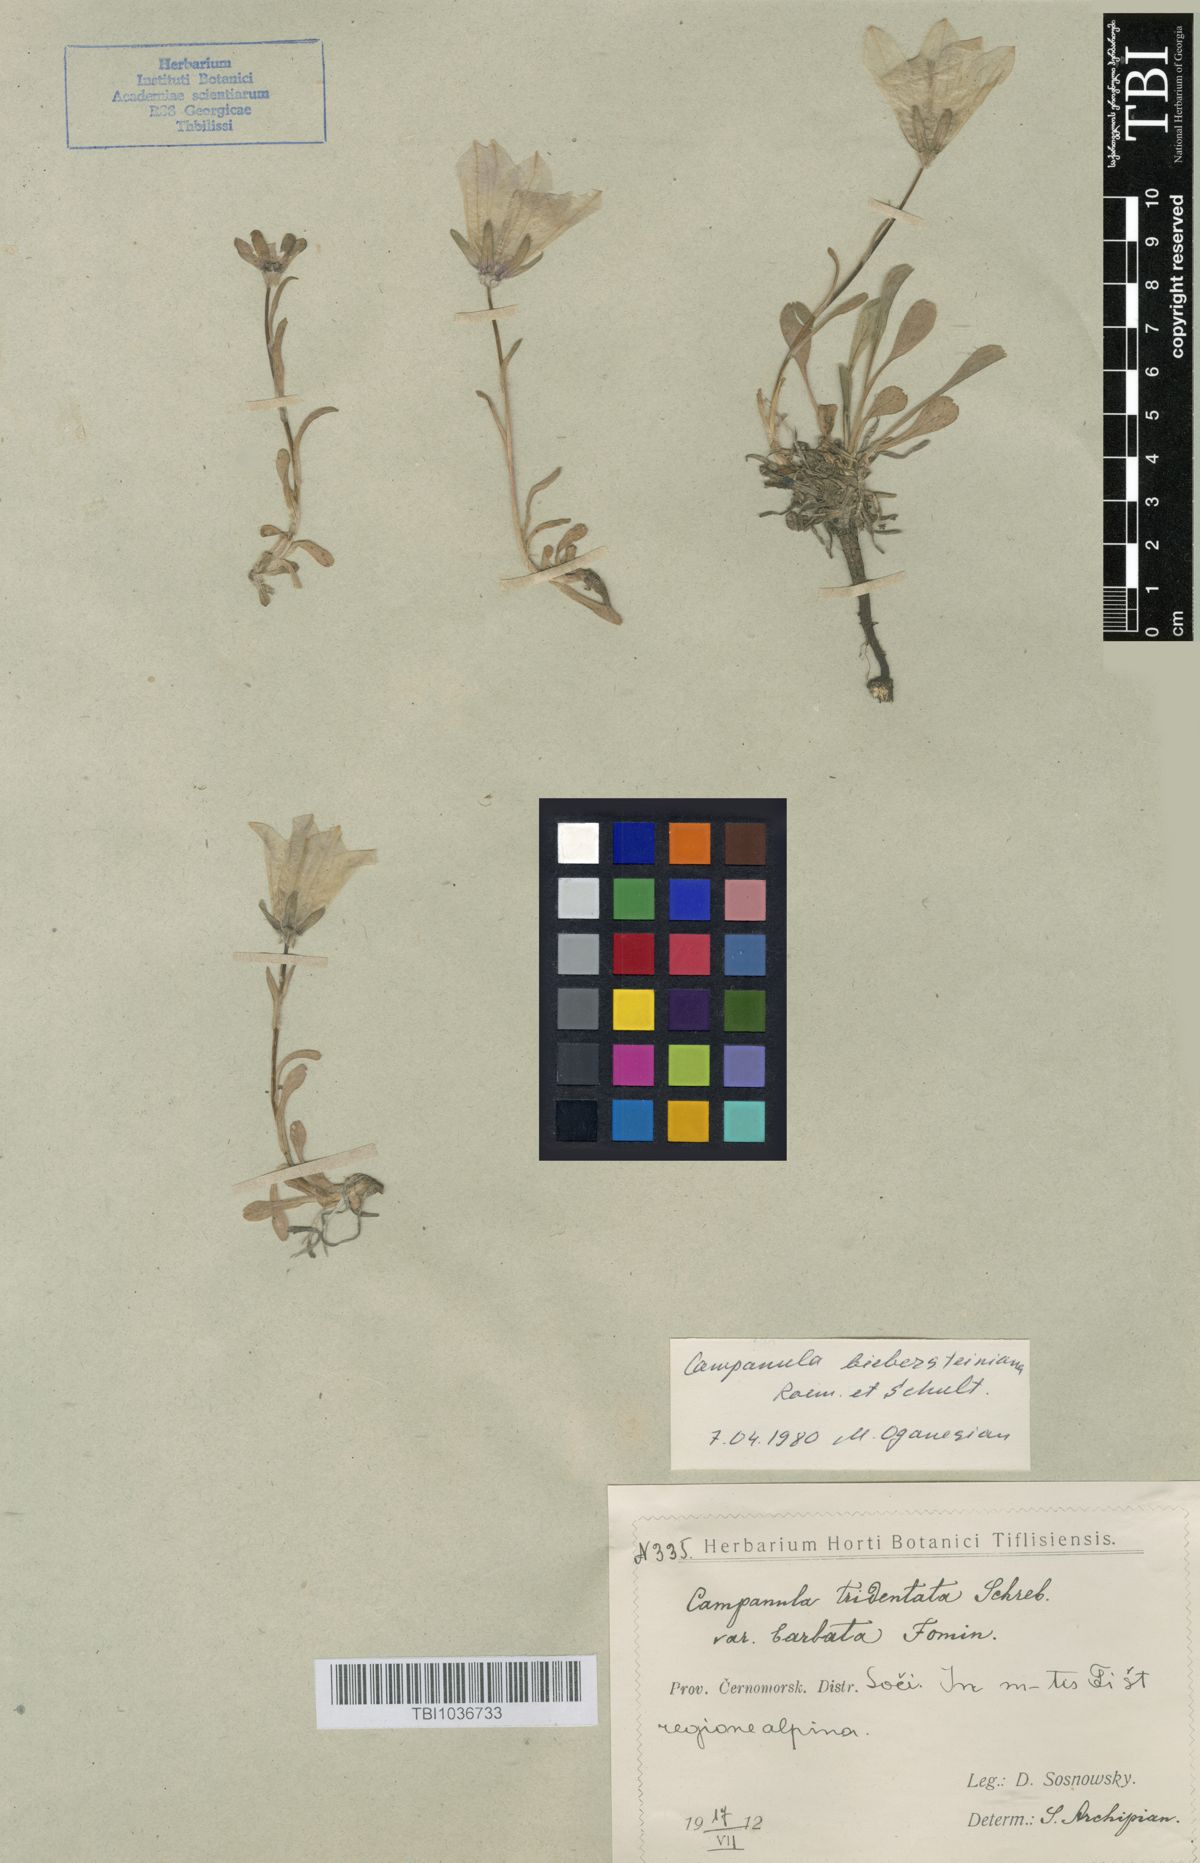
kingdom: Plantae
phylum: Tracheophyta
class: Magnoliopsida
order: Asterales
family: Campanulaceae
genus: Campanula
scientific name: Campanula tridentata
